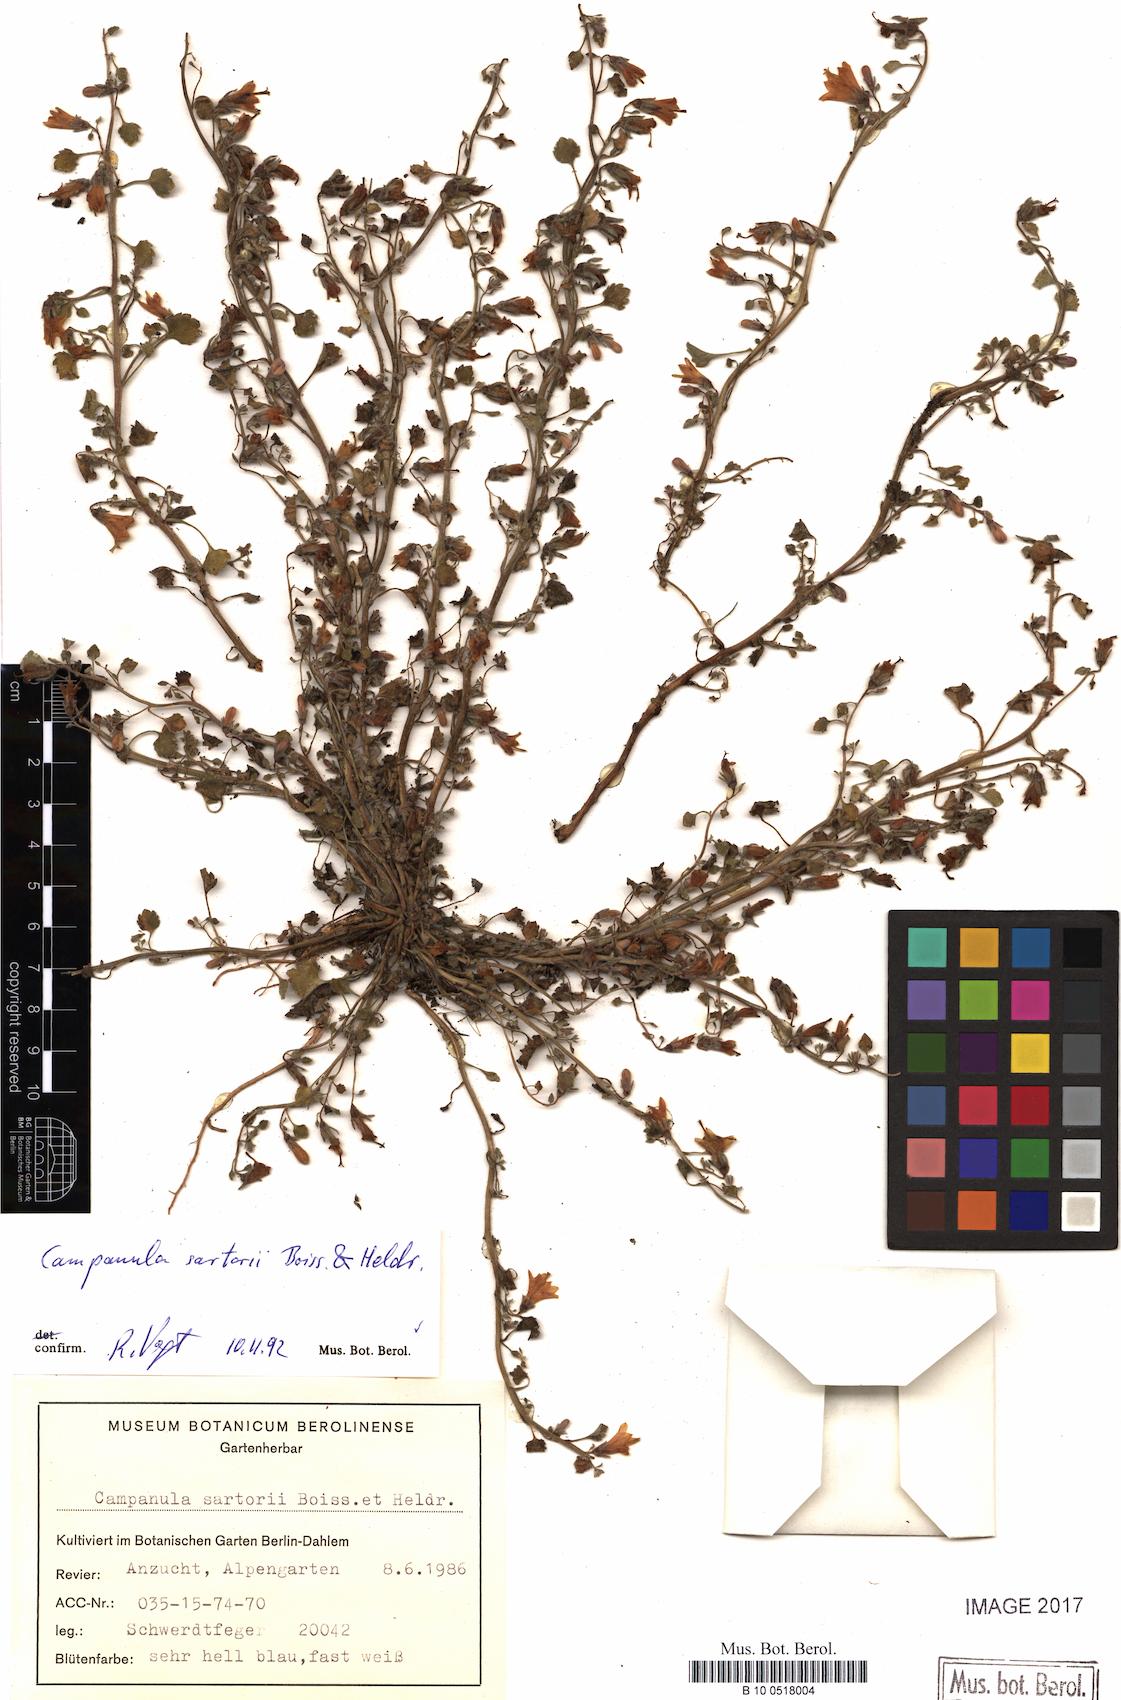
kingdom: Plantae
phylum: Tracheophyta
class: Liliopsida
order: Asparagales
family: Orchidaceae
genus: Cuitlauzina
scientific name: Cuitlauzina pulchella
